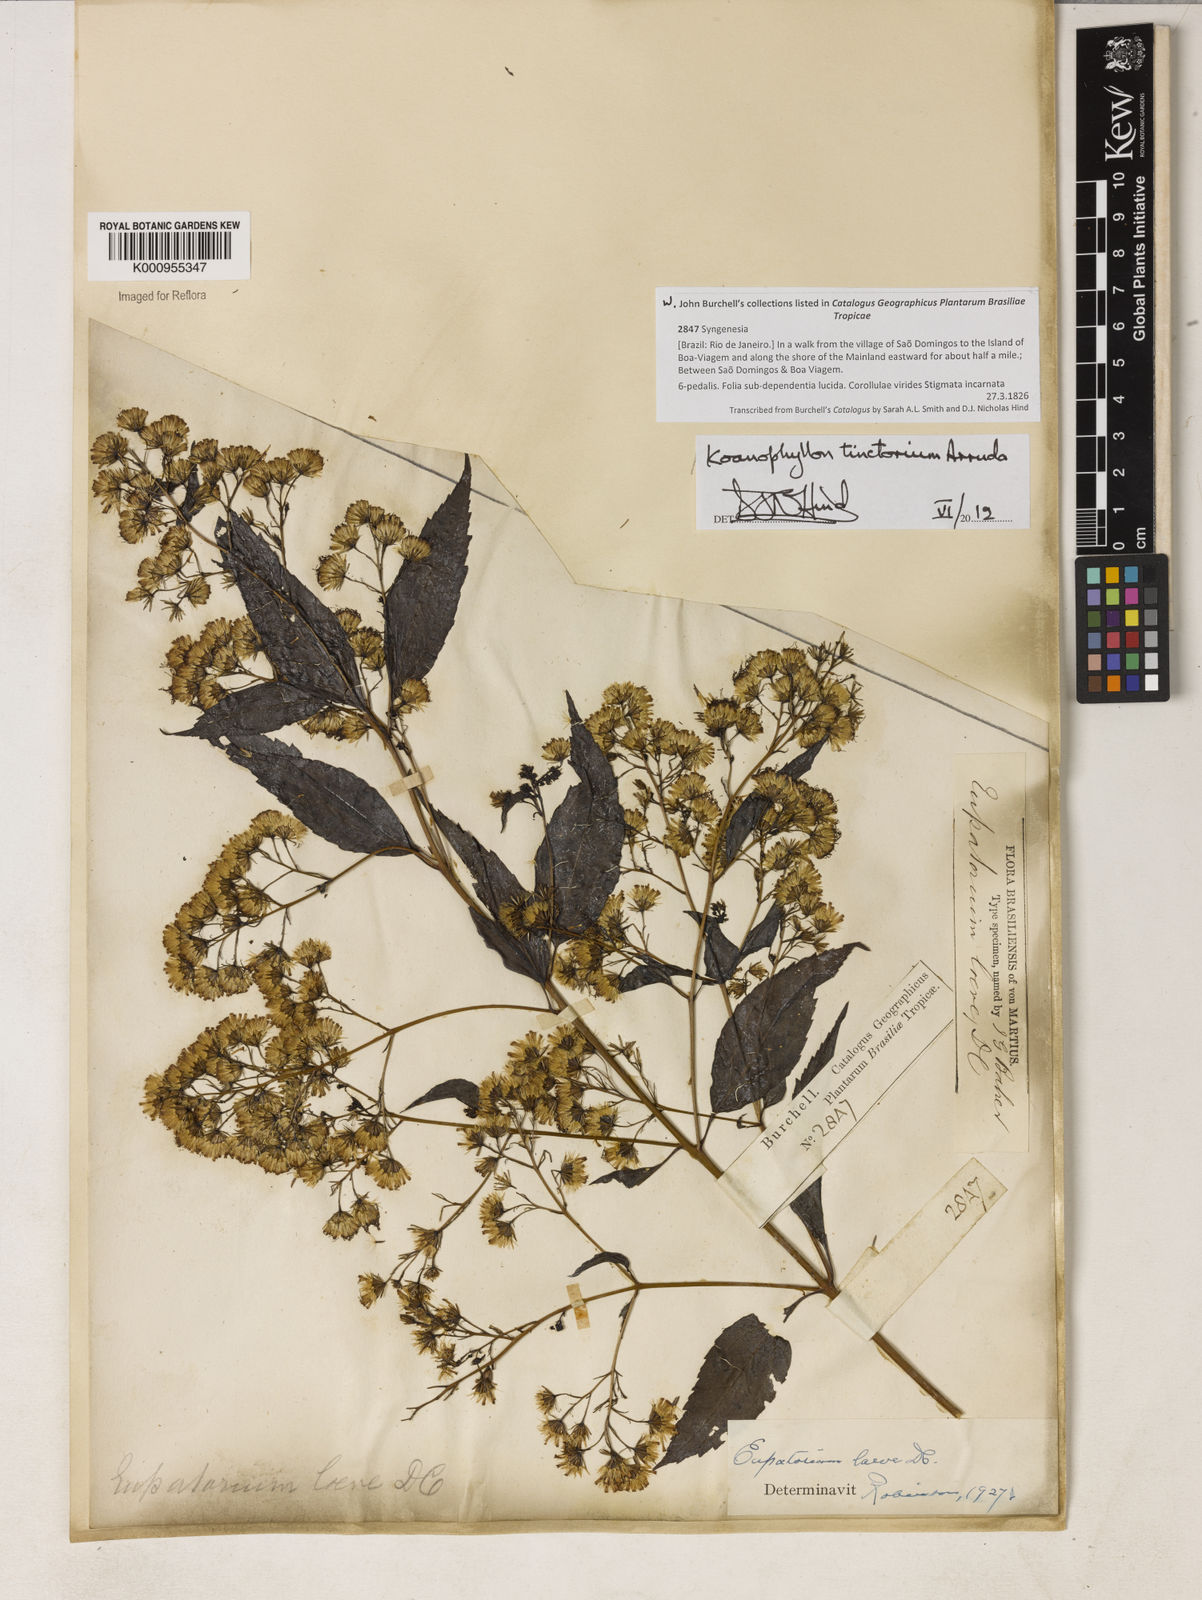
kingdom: Plantae
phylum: Tracheophyta
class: Magnoliopsida
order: Asterales
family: Asteraceae
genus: Koanophyllon
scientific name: Koanophyllon
